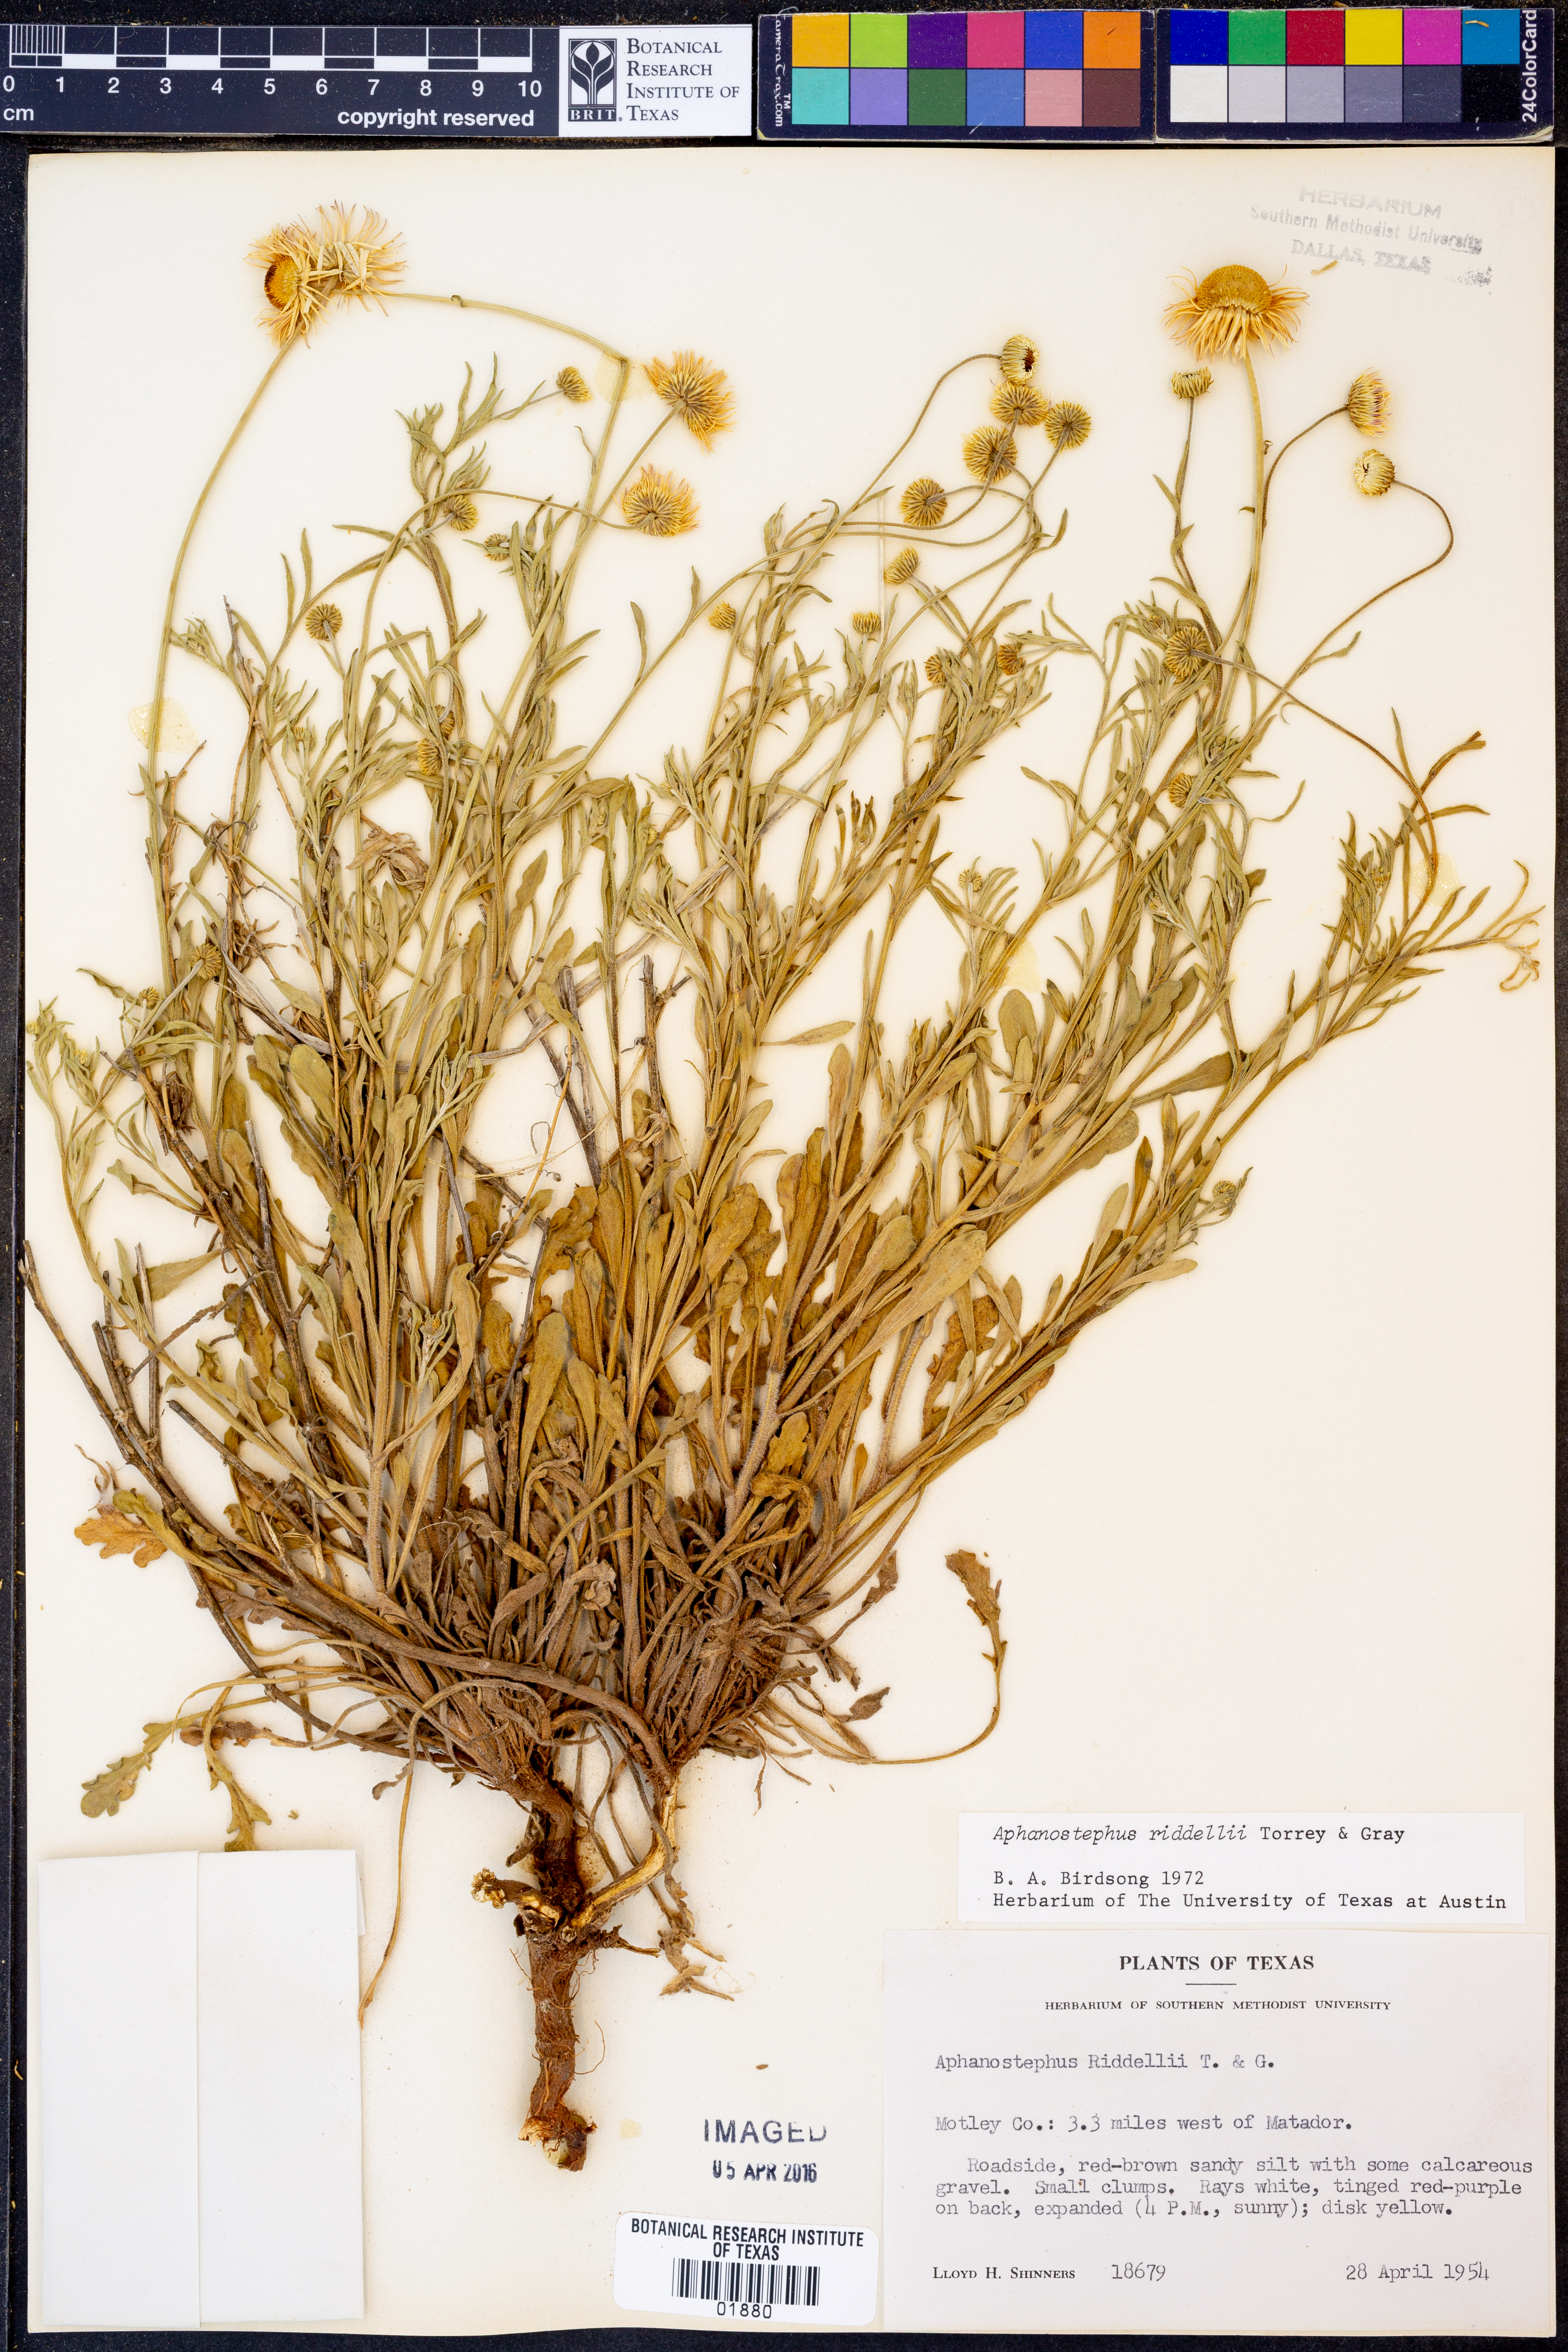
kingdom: Plantae
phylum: Tracheophyta
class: Magnoliopsida
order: Asterales
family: Asteraceae
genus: Aphanostephus
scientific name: Aphanostephus riddellii
